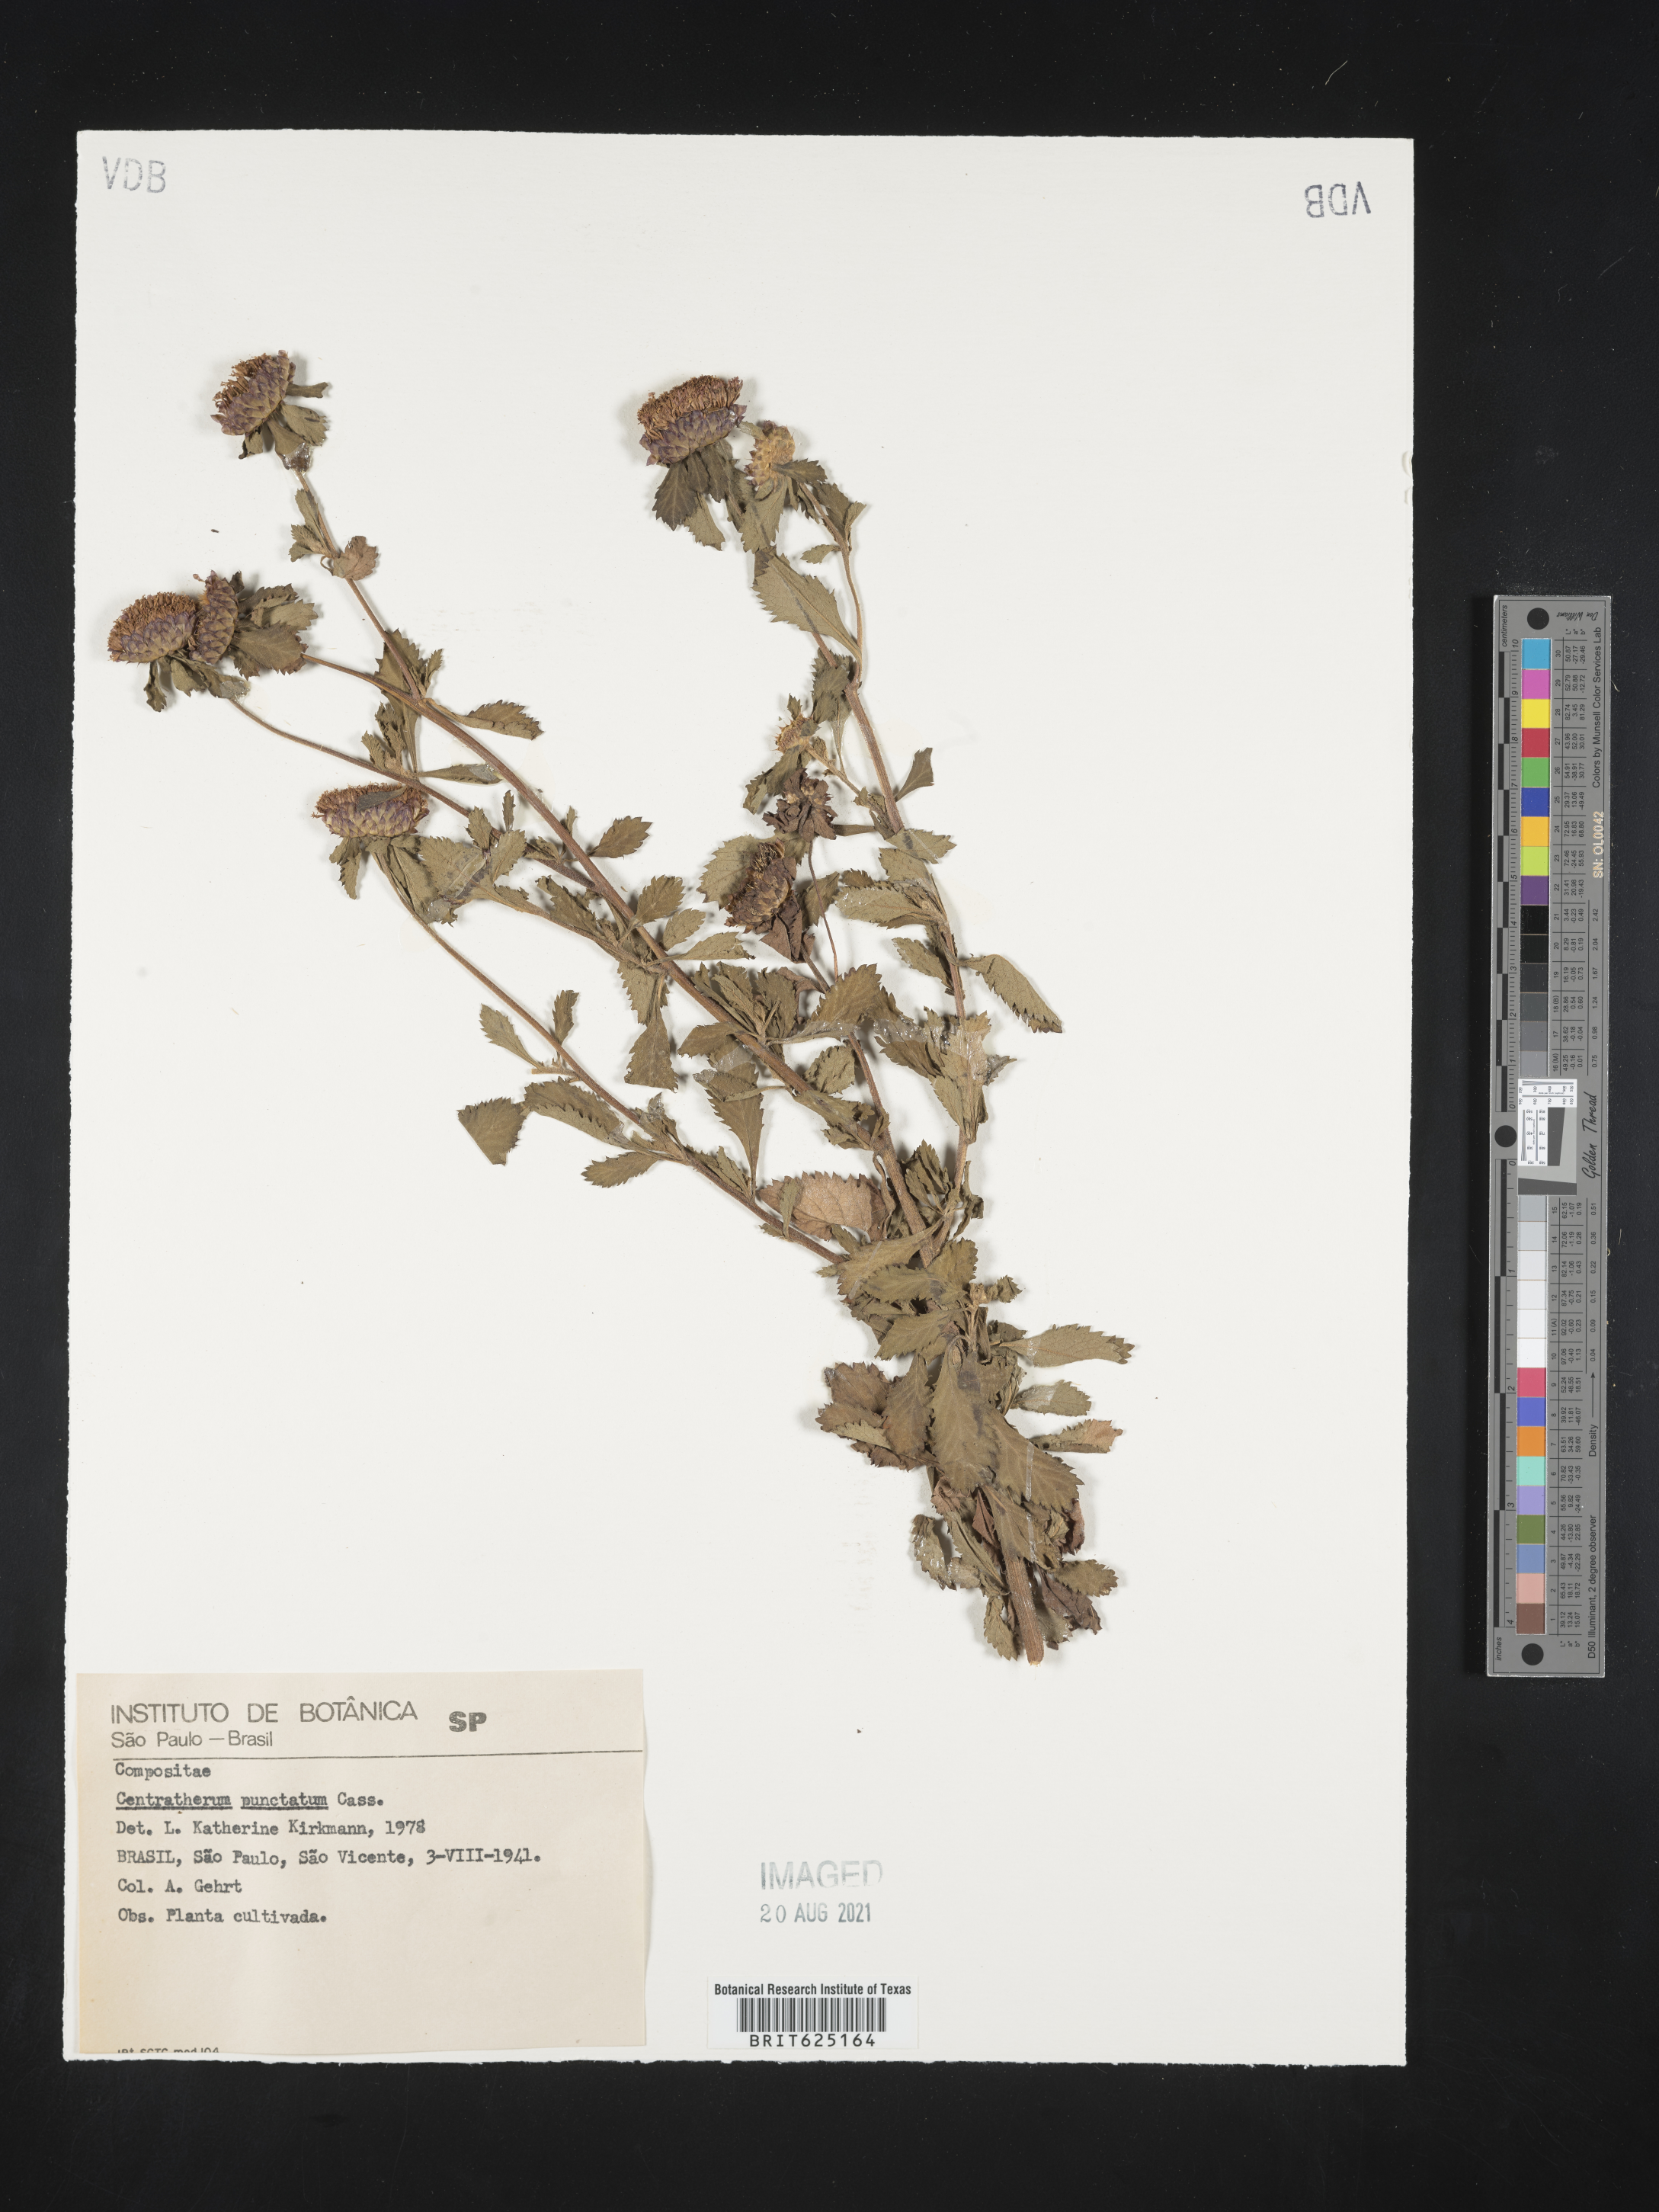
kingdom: Plantae
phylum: Tracheophyta
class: Magnoliopsida
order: Asterales
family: Asteraceae
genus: Centratherum
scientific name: Centratherum punctatum
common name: Larkdaisy
